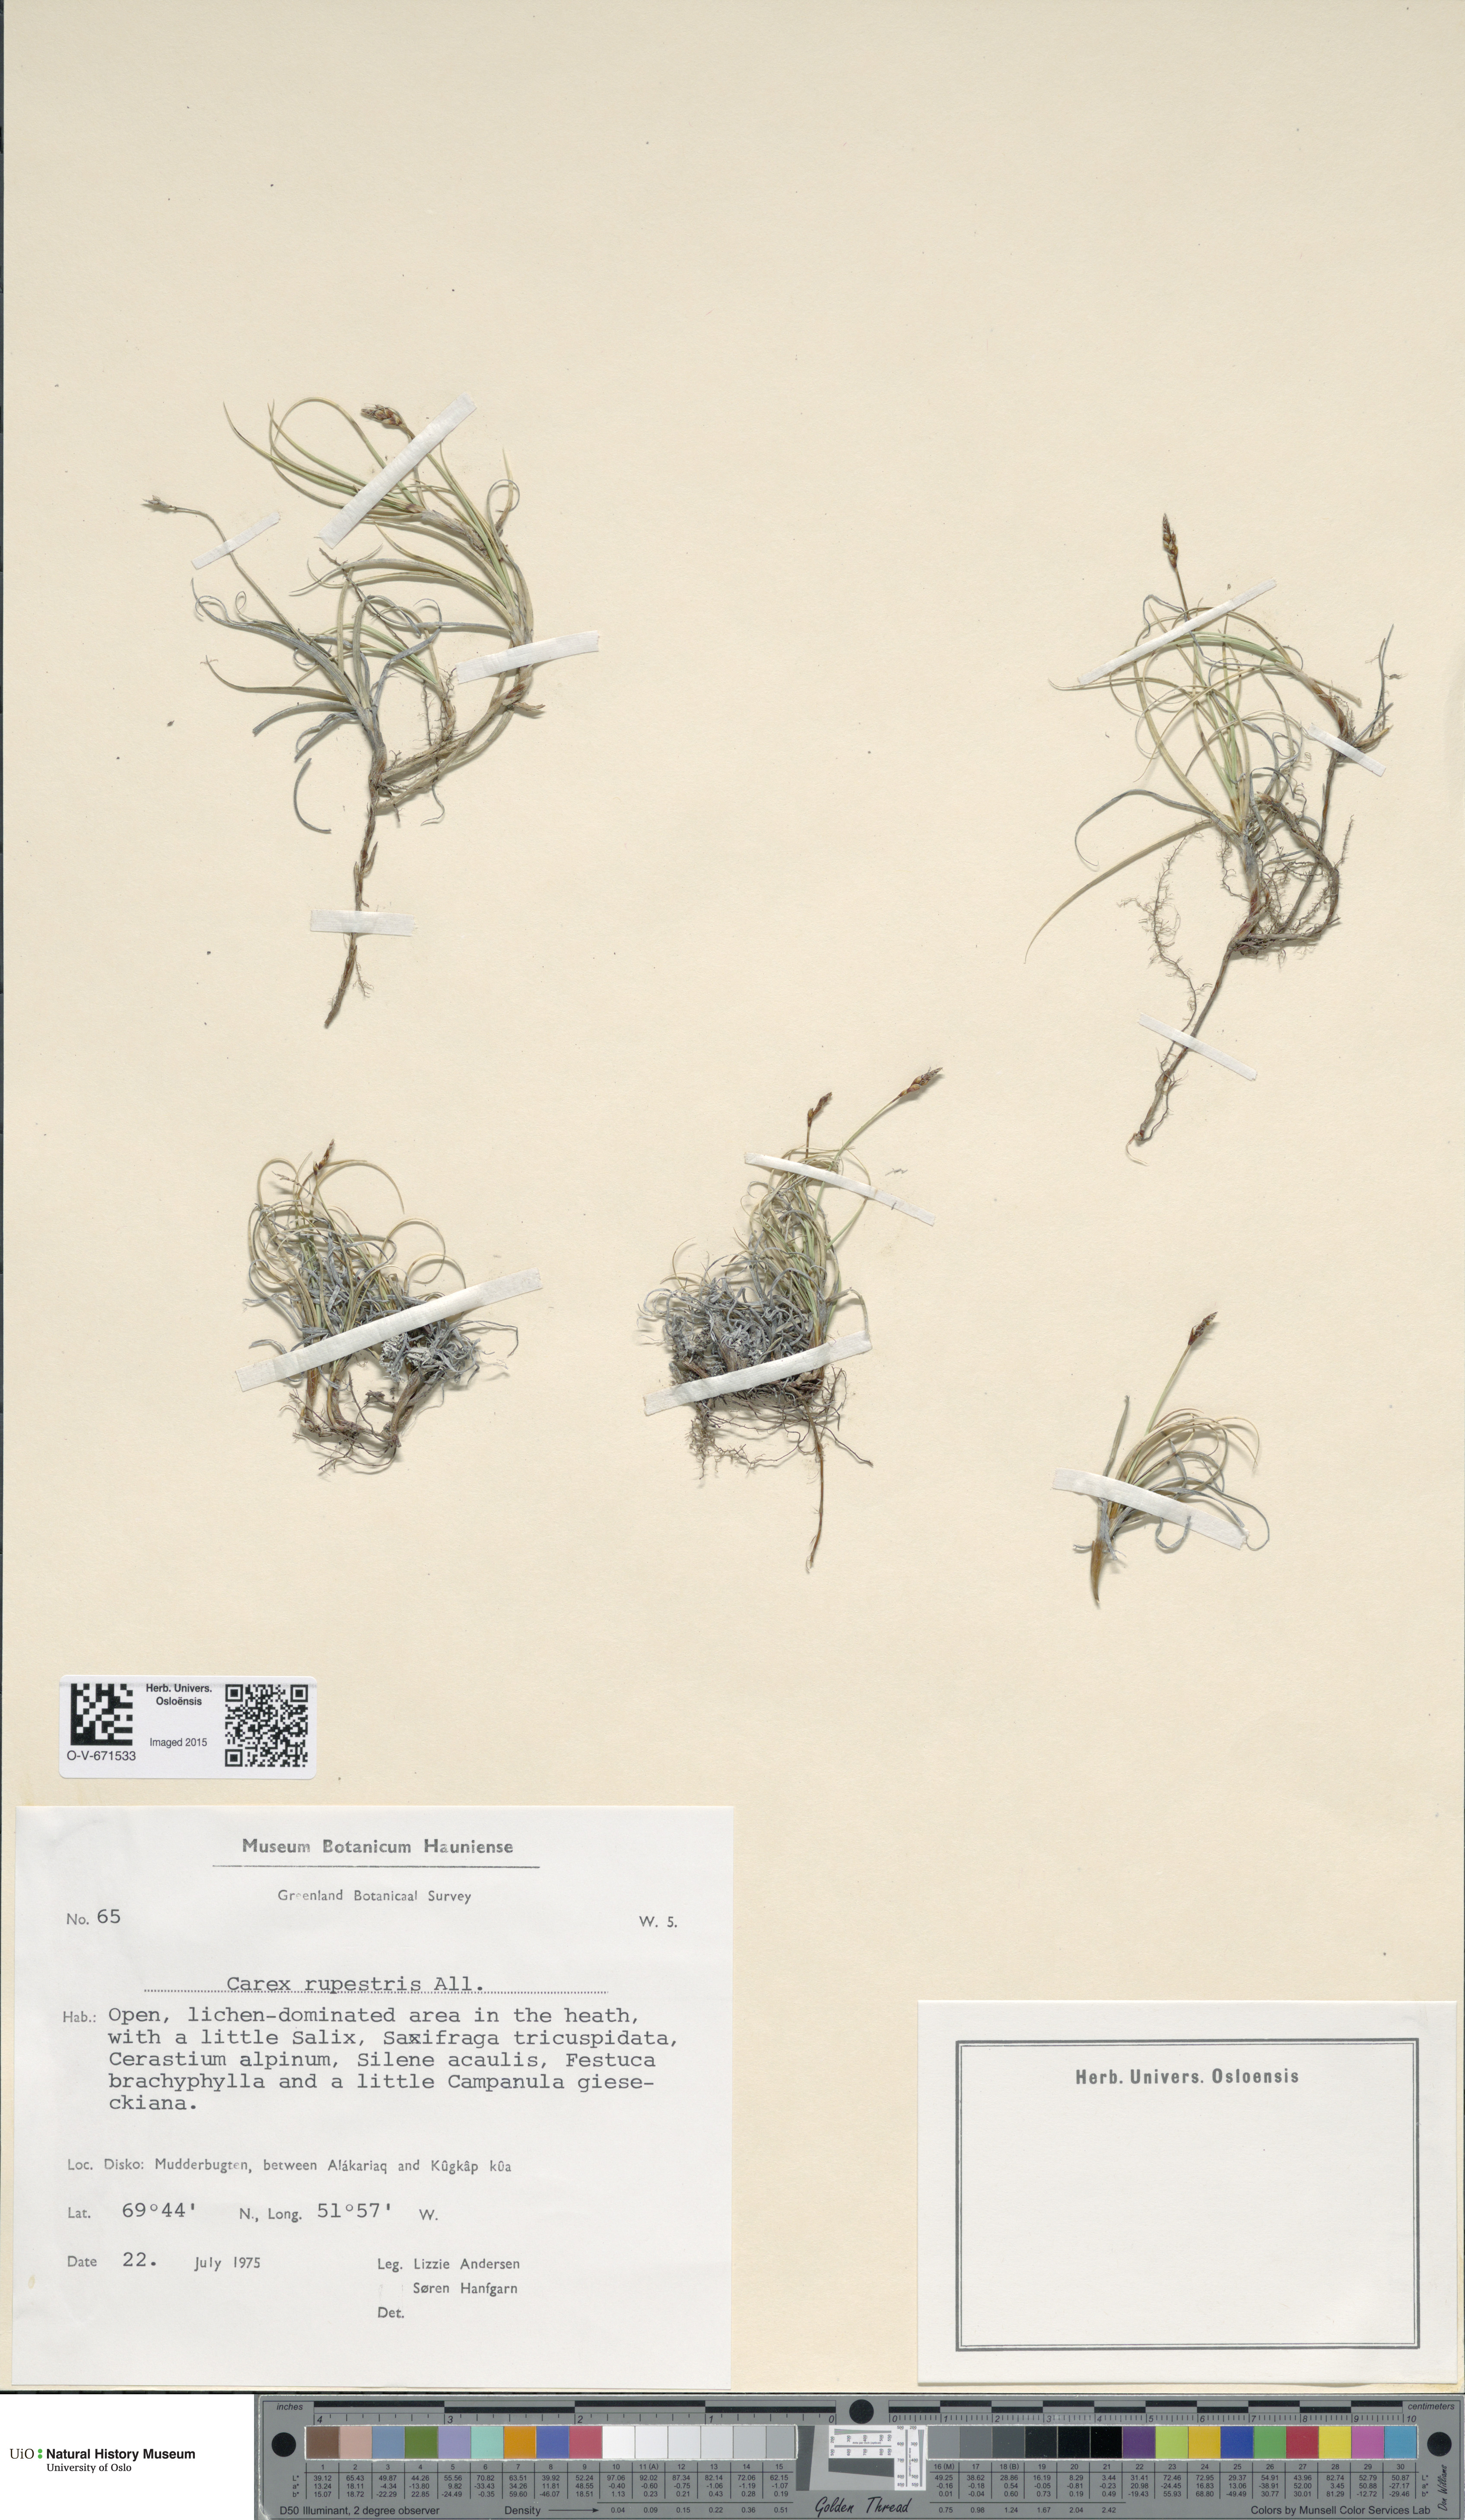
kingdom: Plantae
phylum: Tracheophyta
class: Liliopsida
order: Poales
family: Cyperaceae
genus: Carex
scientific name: Carex rupestris
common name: Rock sedge
